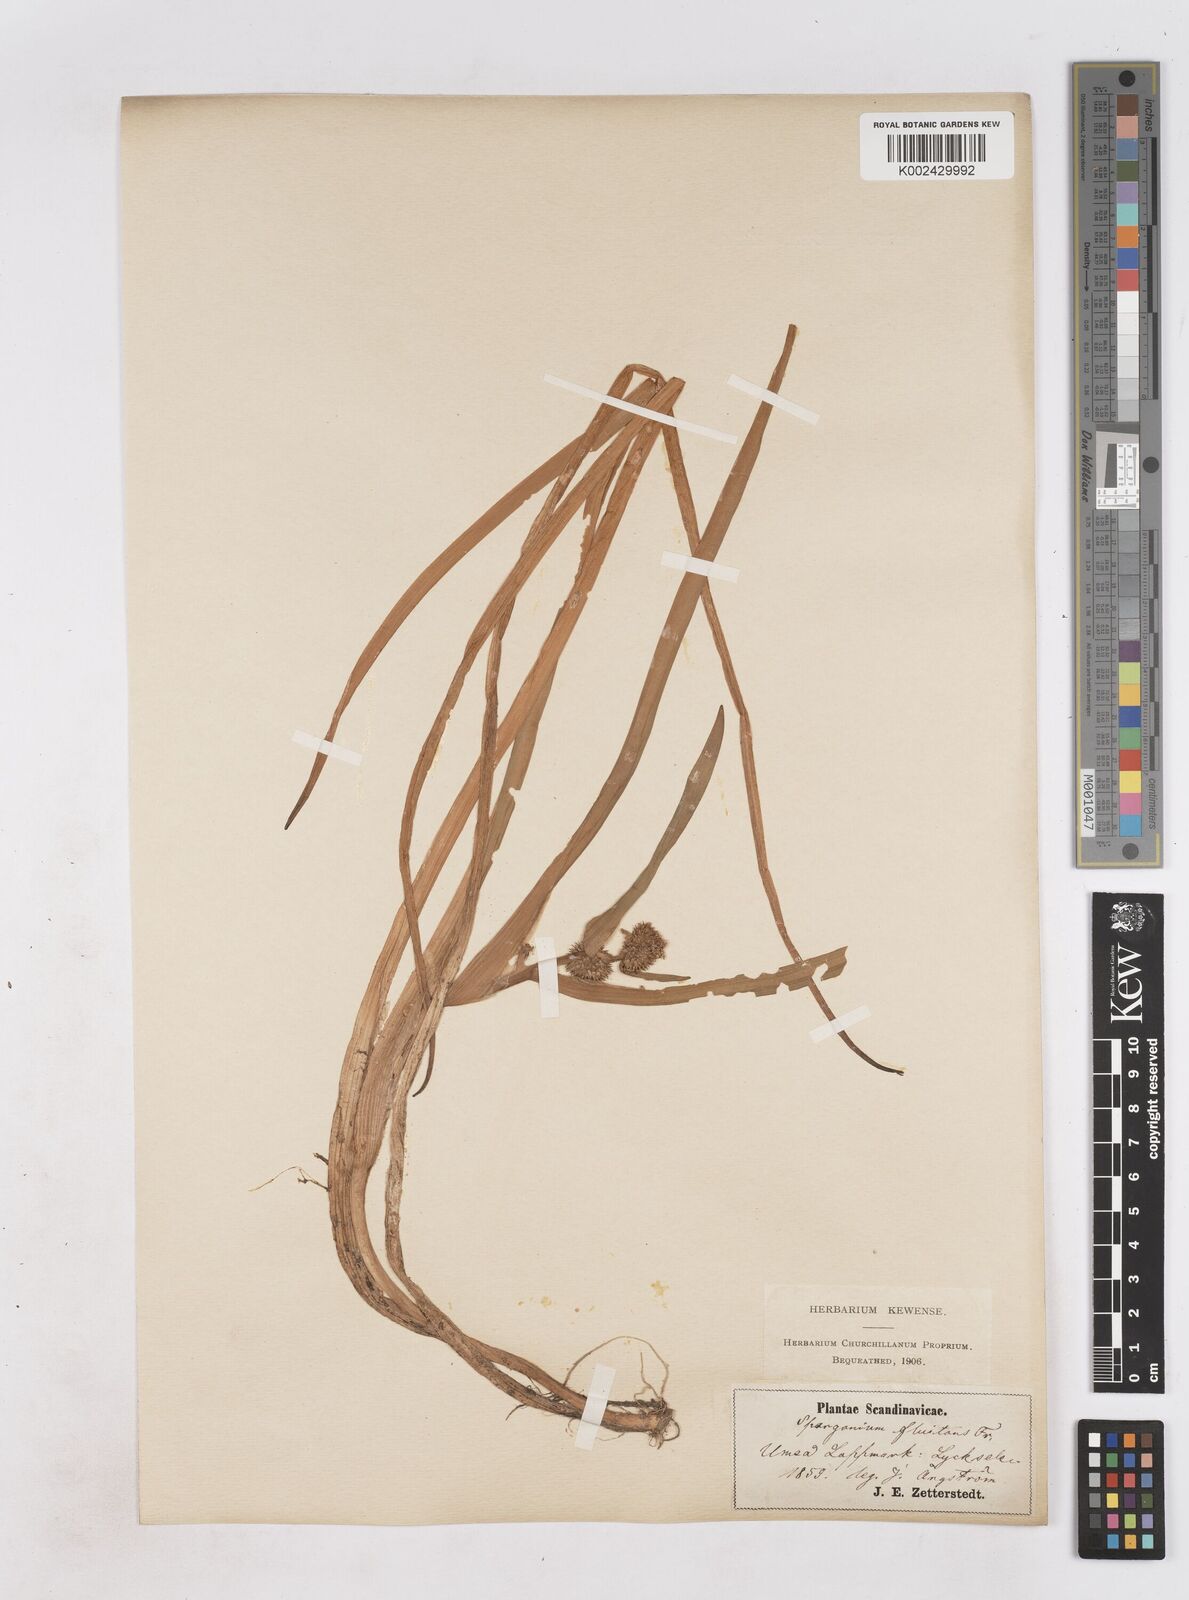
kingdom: Plantae
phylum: Tracheophyta
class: Liliopsida
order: Poales
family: Typhaceae
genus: Sparganium
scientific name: Sparganium angustifolium
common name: Floating bur-reed
